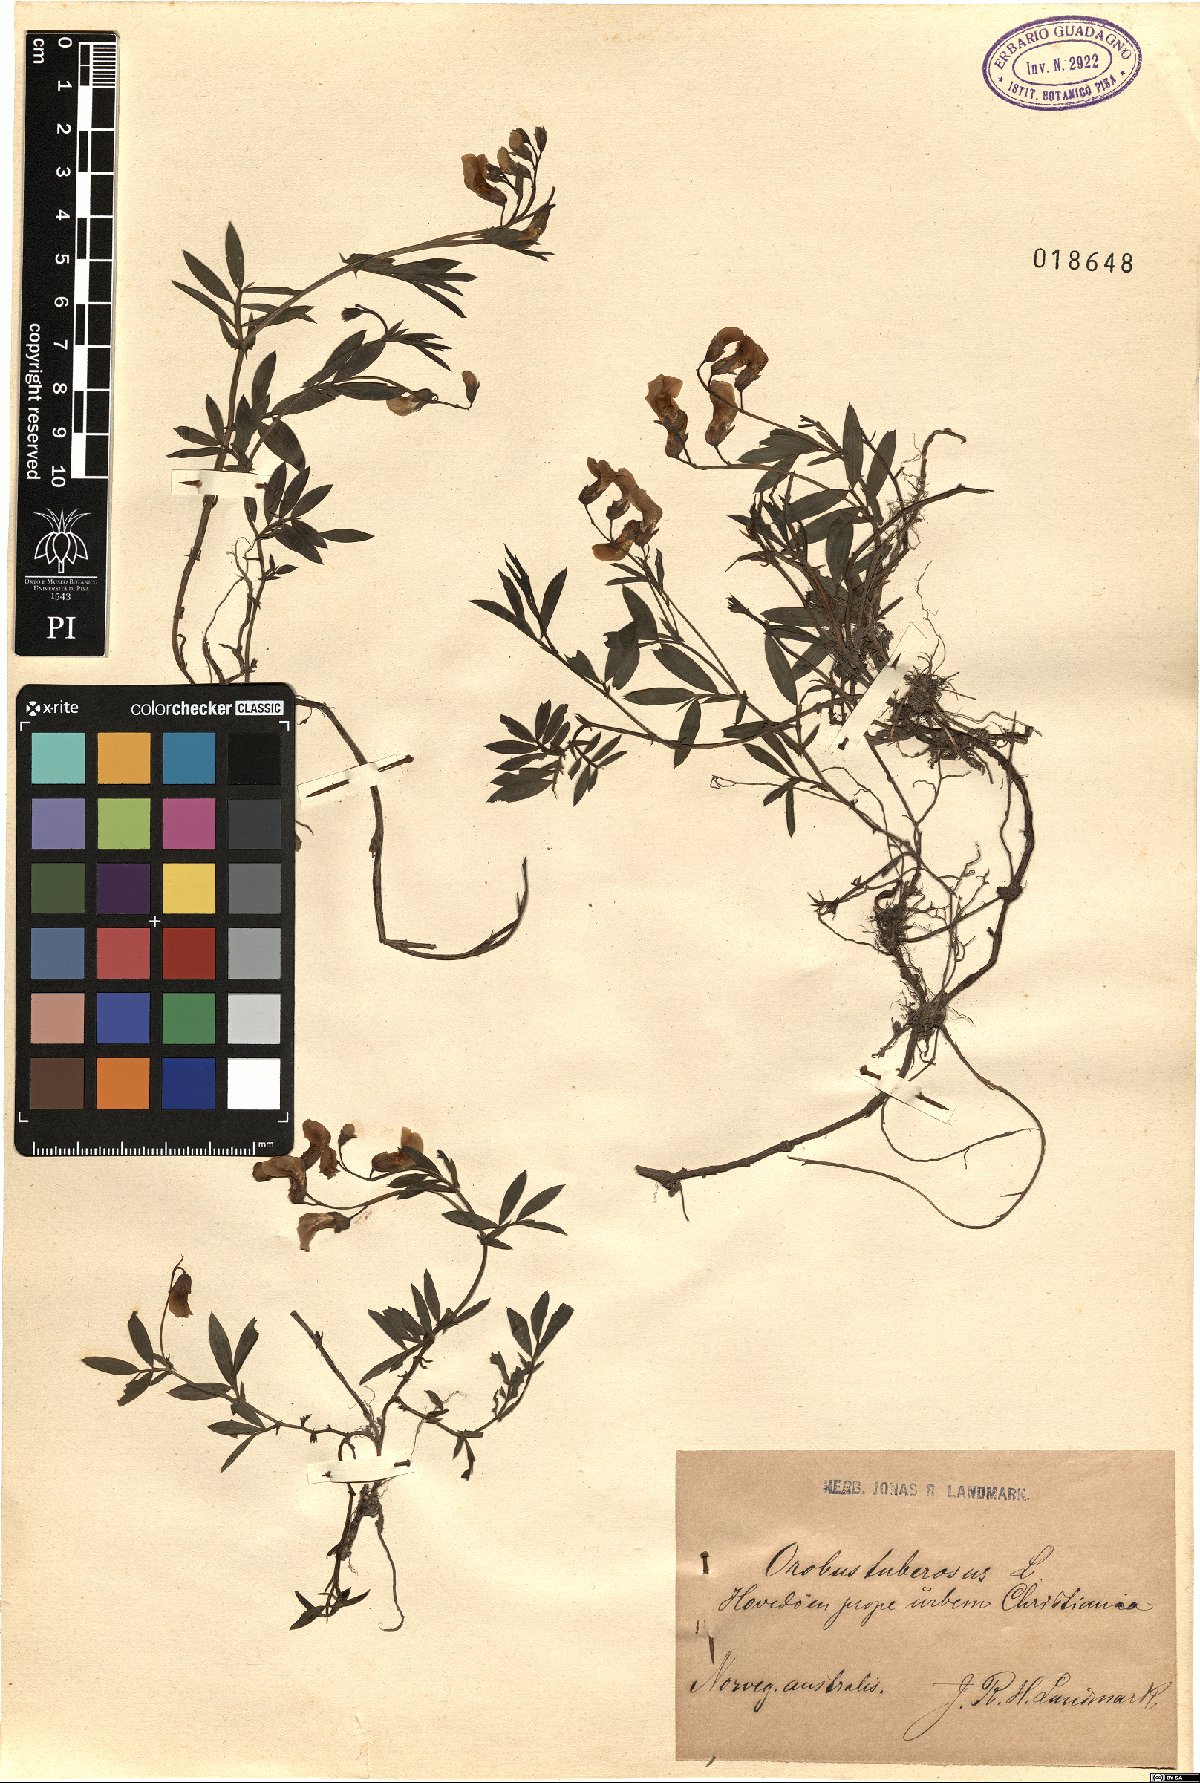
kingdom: Plantae
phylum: Tracheophyta
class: Magnoliopsida
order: Fabales
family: Fabaceae
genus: Lathyrus
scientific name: Lathyrus linifolius
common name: Bitter-vetch
